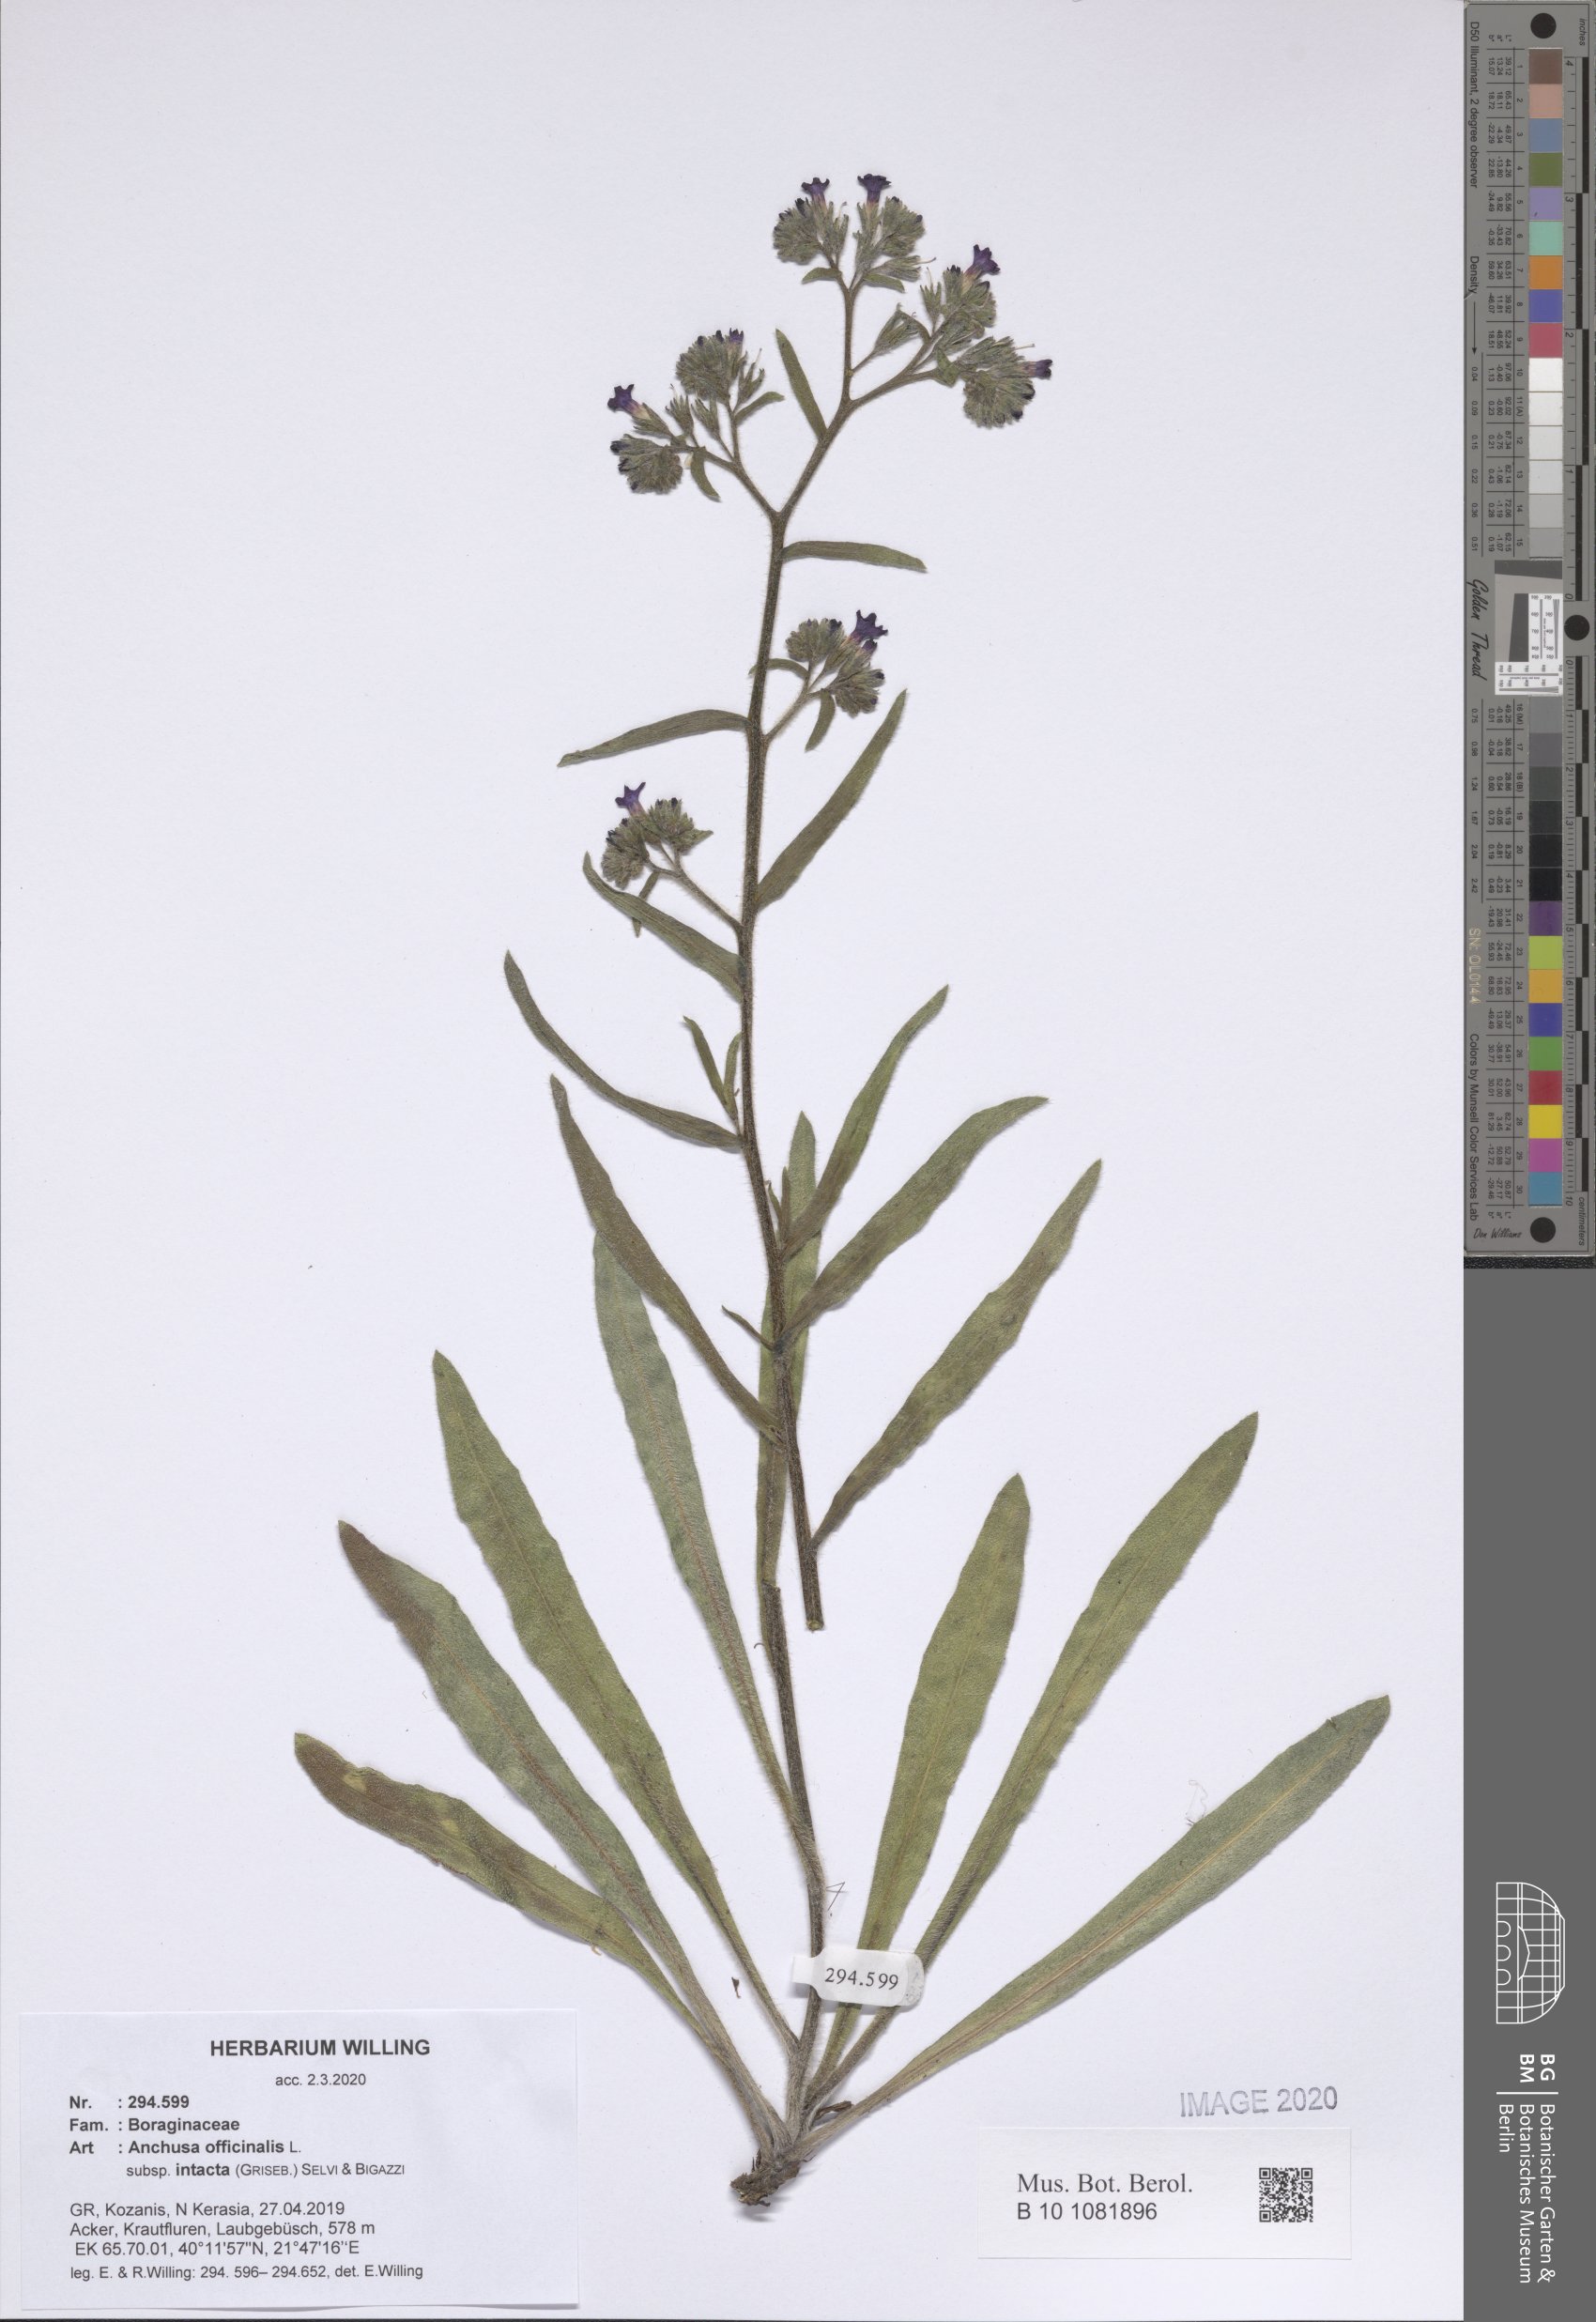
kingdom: Plantae
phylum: Tracheophyta
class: Magnoliopsida
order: Boraginales
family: Boraginaceae
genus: Anchusa
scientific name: Anchusa officinalis
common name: Alkanet
